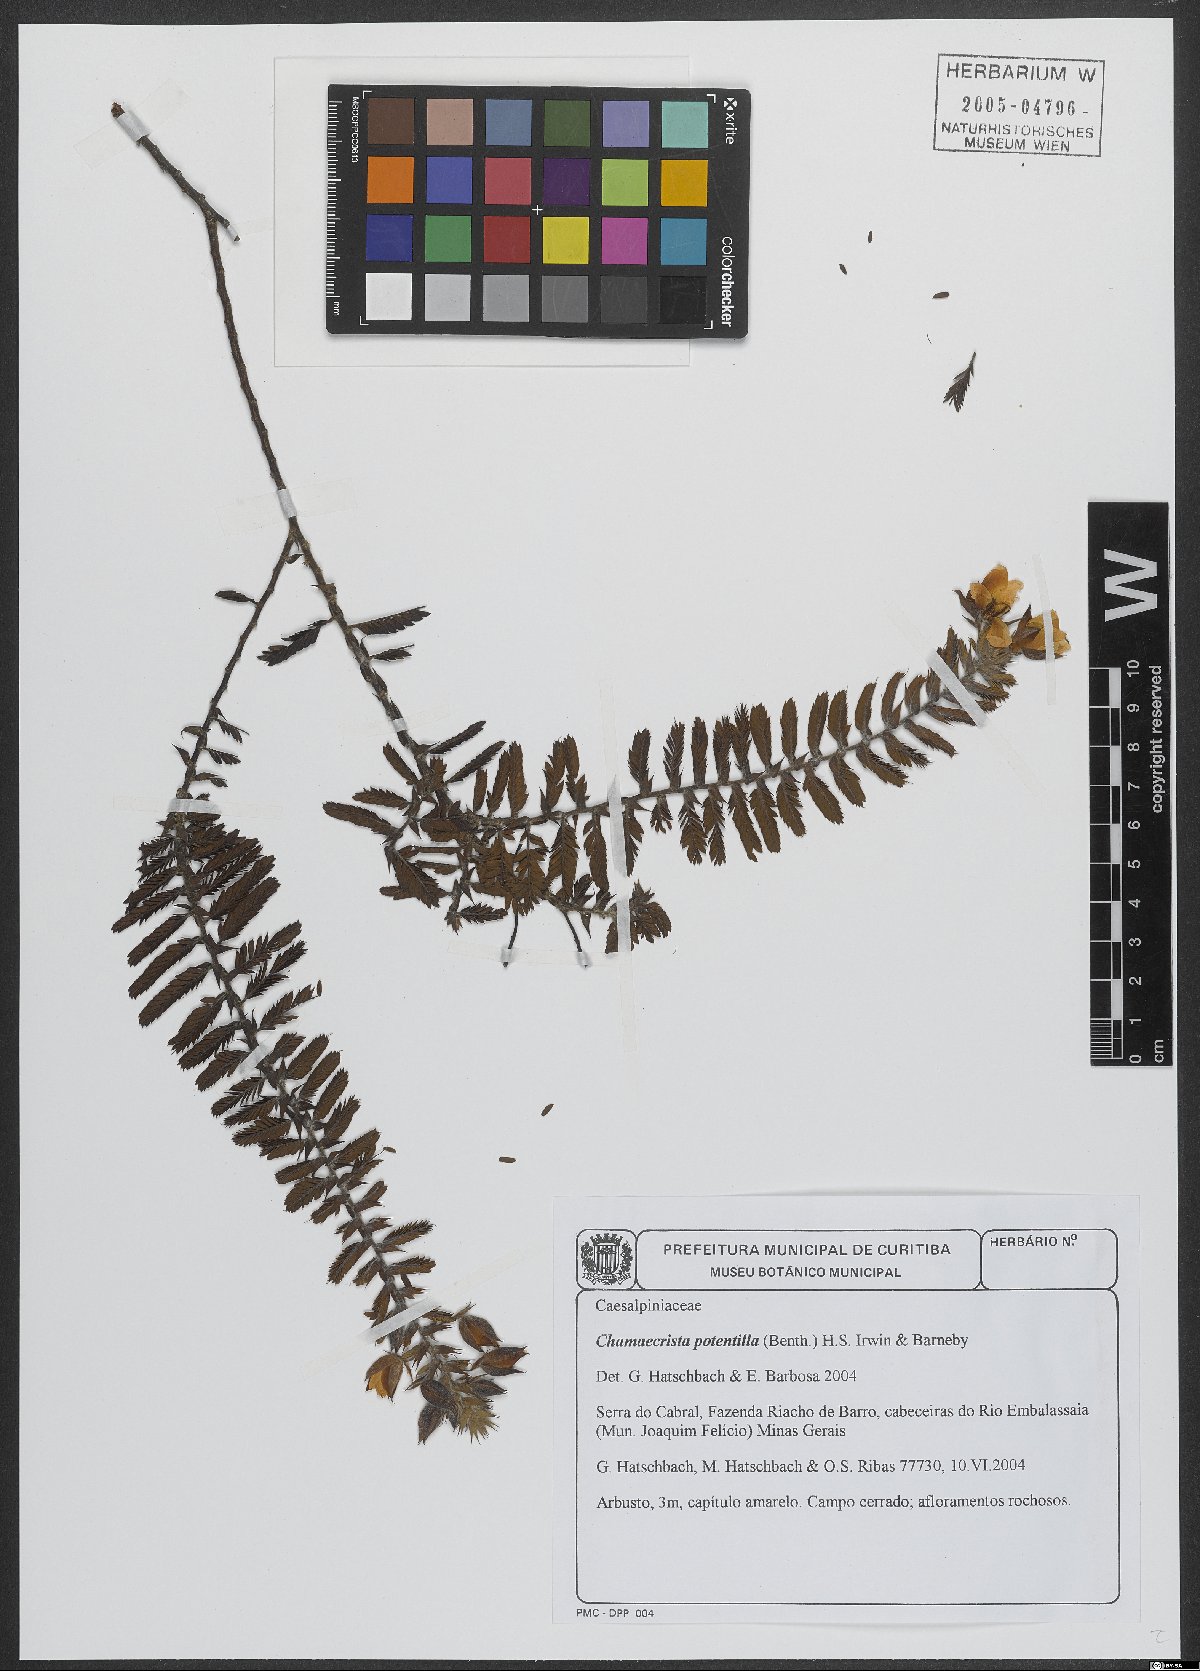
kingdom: Plantae
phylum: Tracheophyta
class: Magnoliopsida
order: Fabales
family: Fabaceae
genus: Chamaecrista
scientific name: Chamaecrista potentilla
